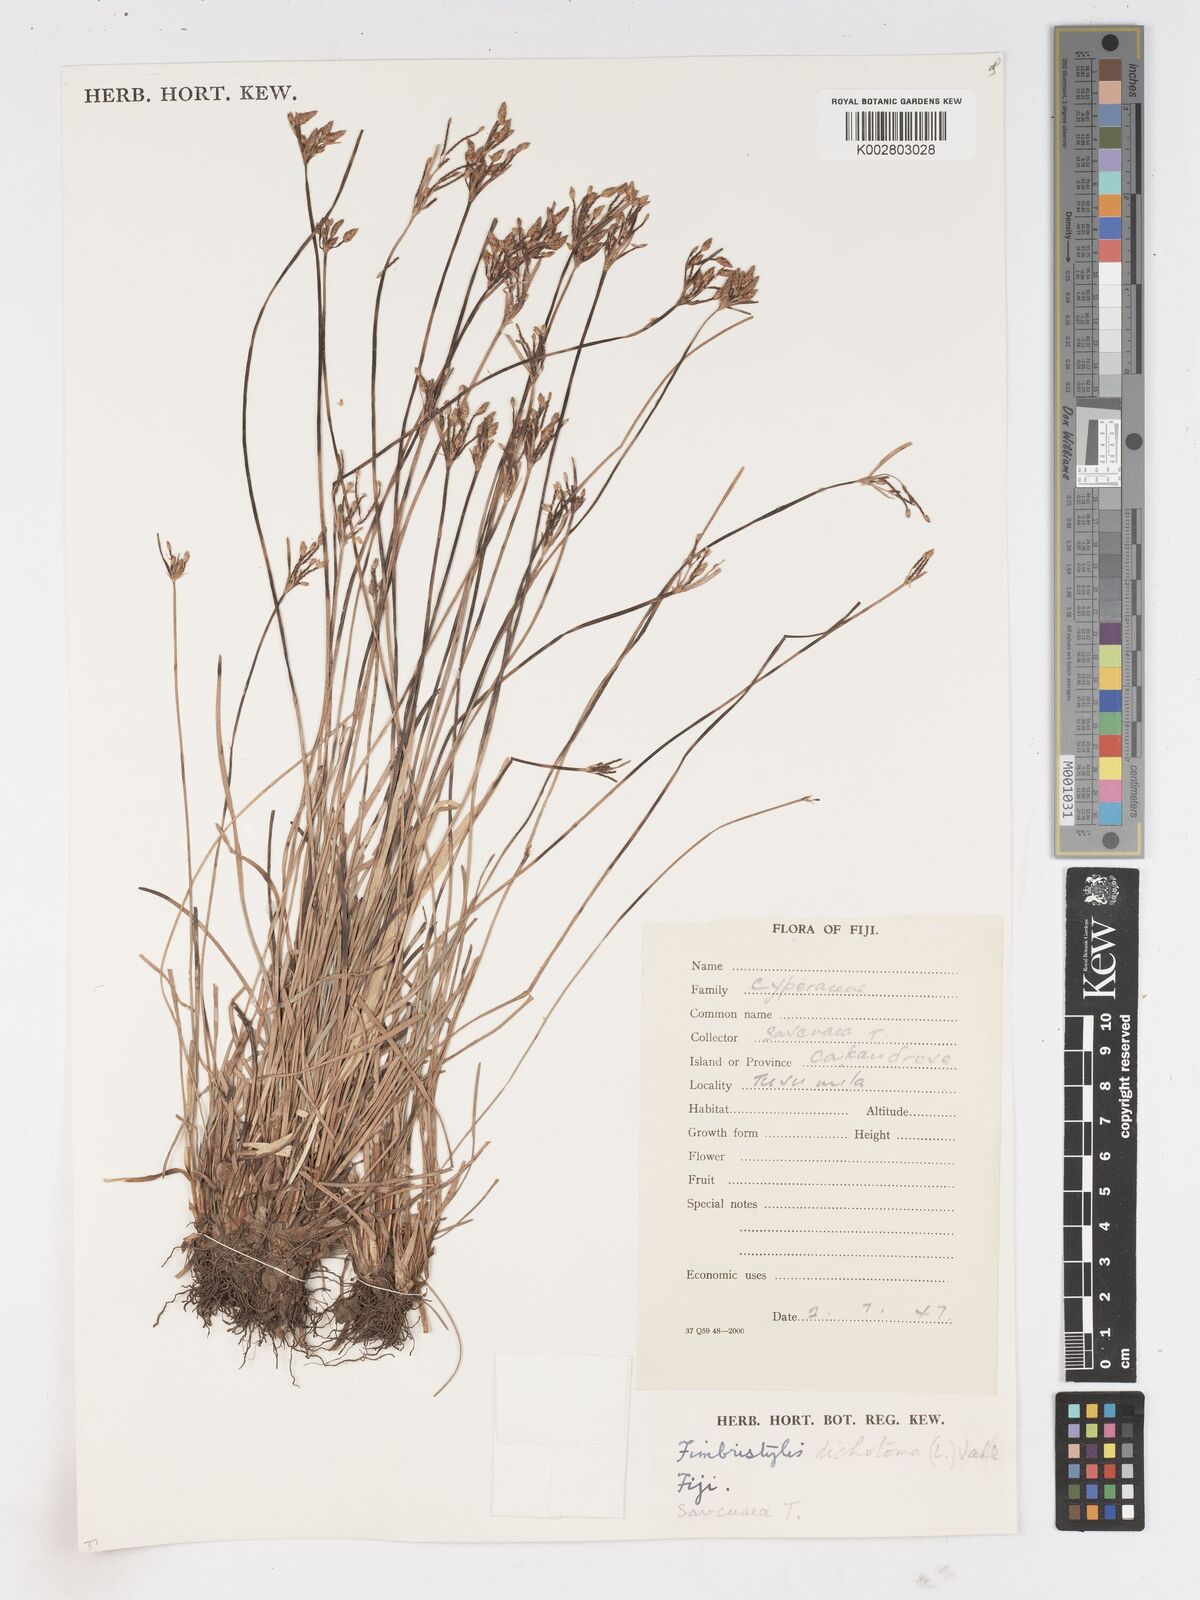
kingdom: Plantae
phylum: Tracheophyta
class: Liliopsida
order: Poales
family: Cyperaceae
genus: Fimbristylis
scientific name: Fimbristylis dichotoma
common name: Forked fimbry
